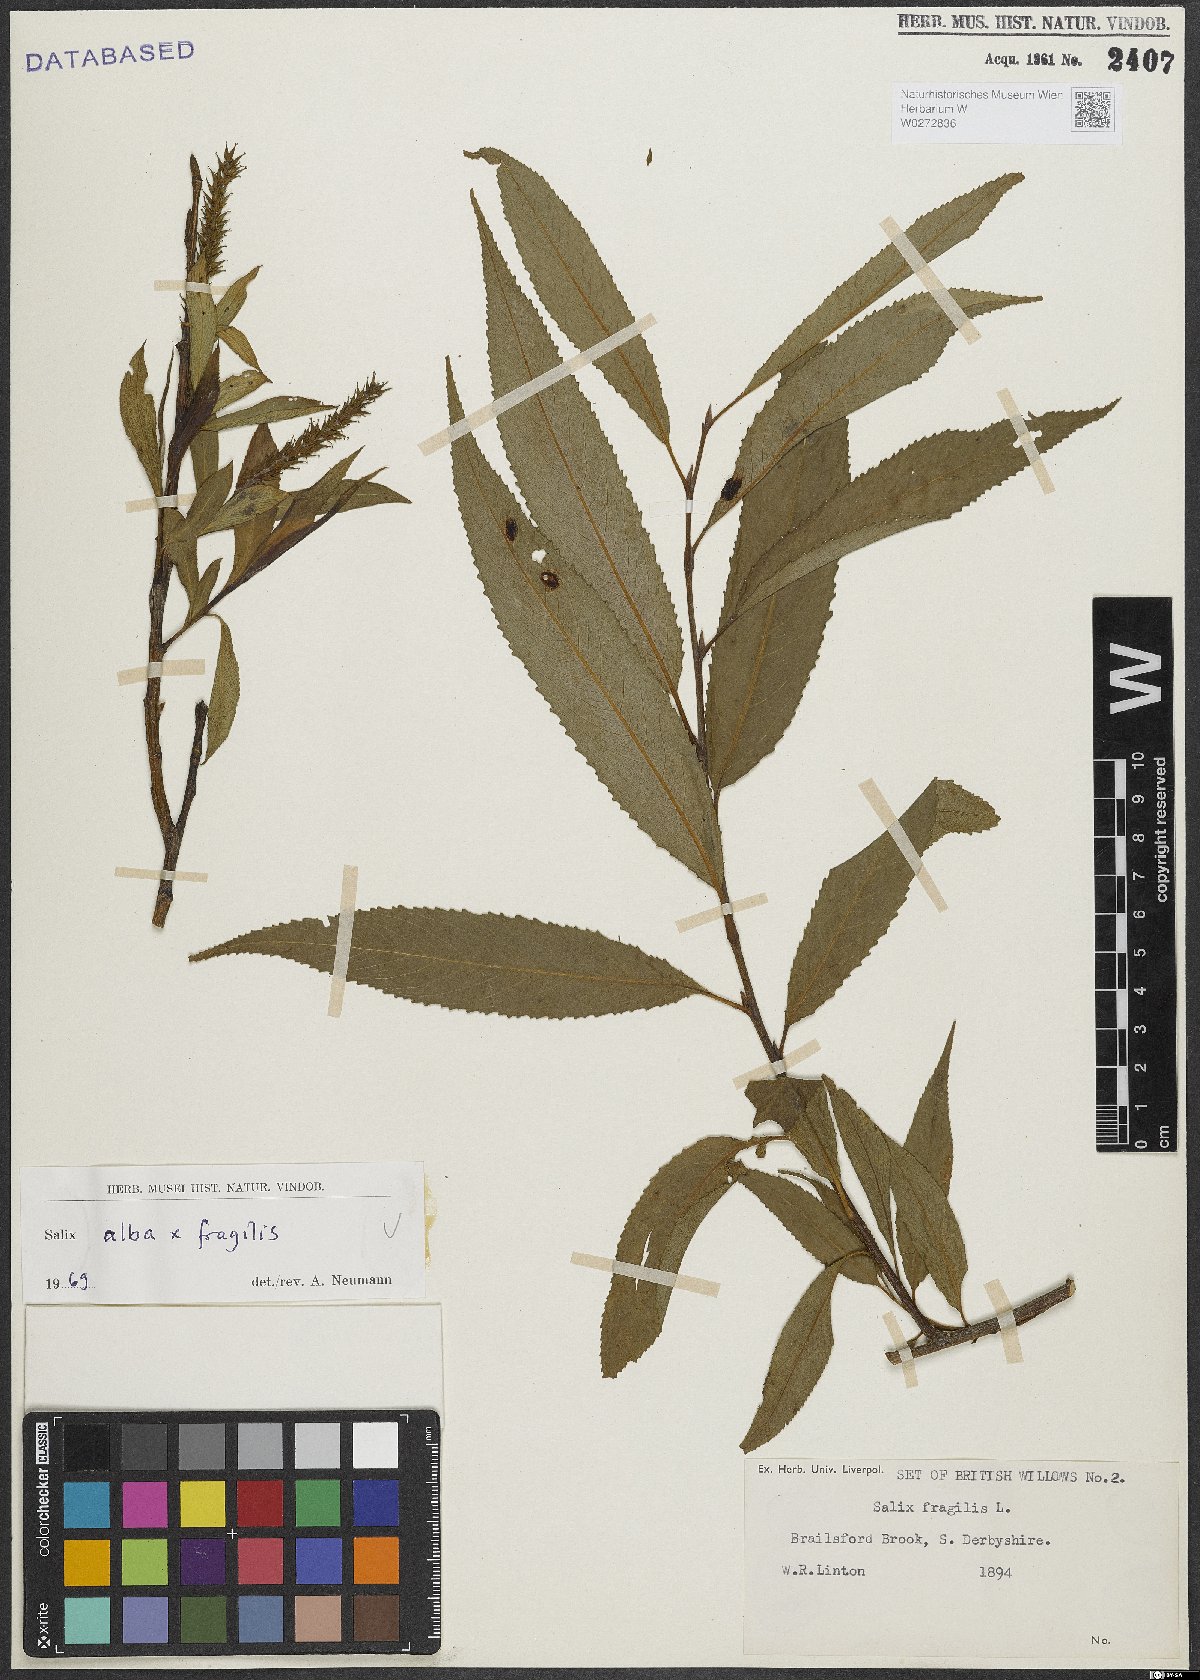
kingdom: Plantae
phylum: Tracheophyta
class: Magnoliopsida
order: Malpighiales
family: Salicaceae
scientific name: Salicaceae
